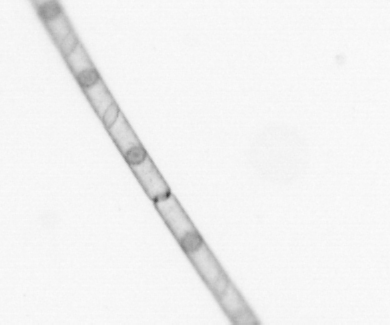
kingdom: Chromista
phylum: Ochrophyta
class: Bacillariophyceae
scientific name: Bacillariophyceae
